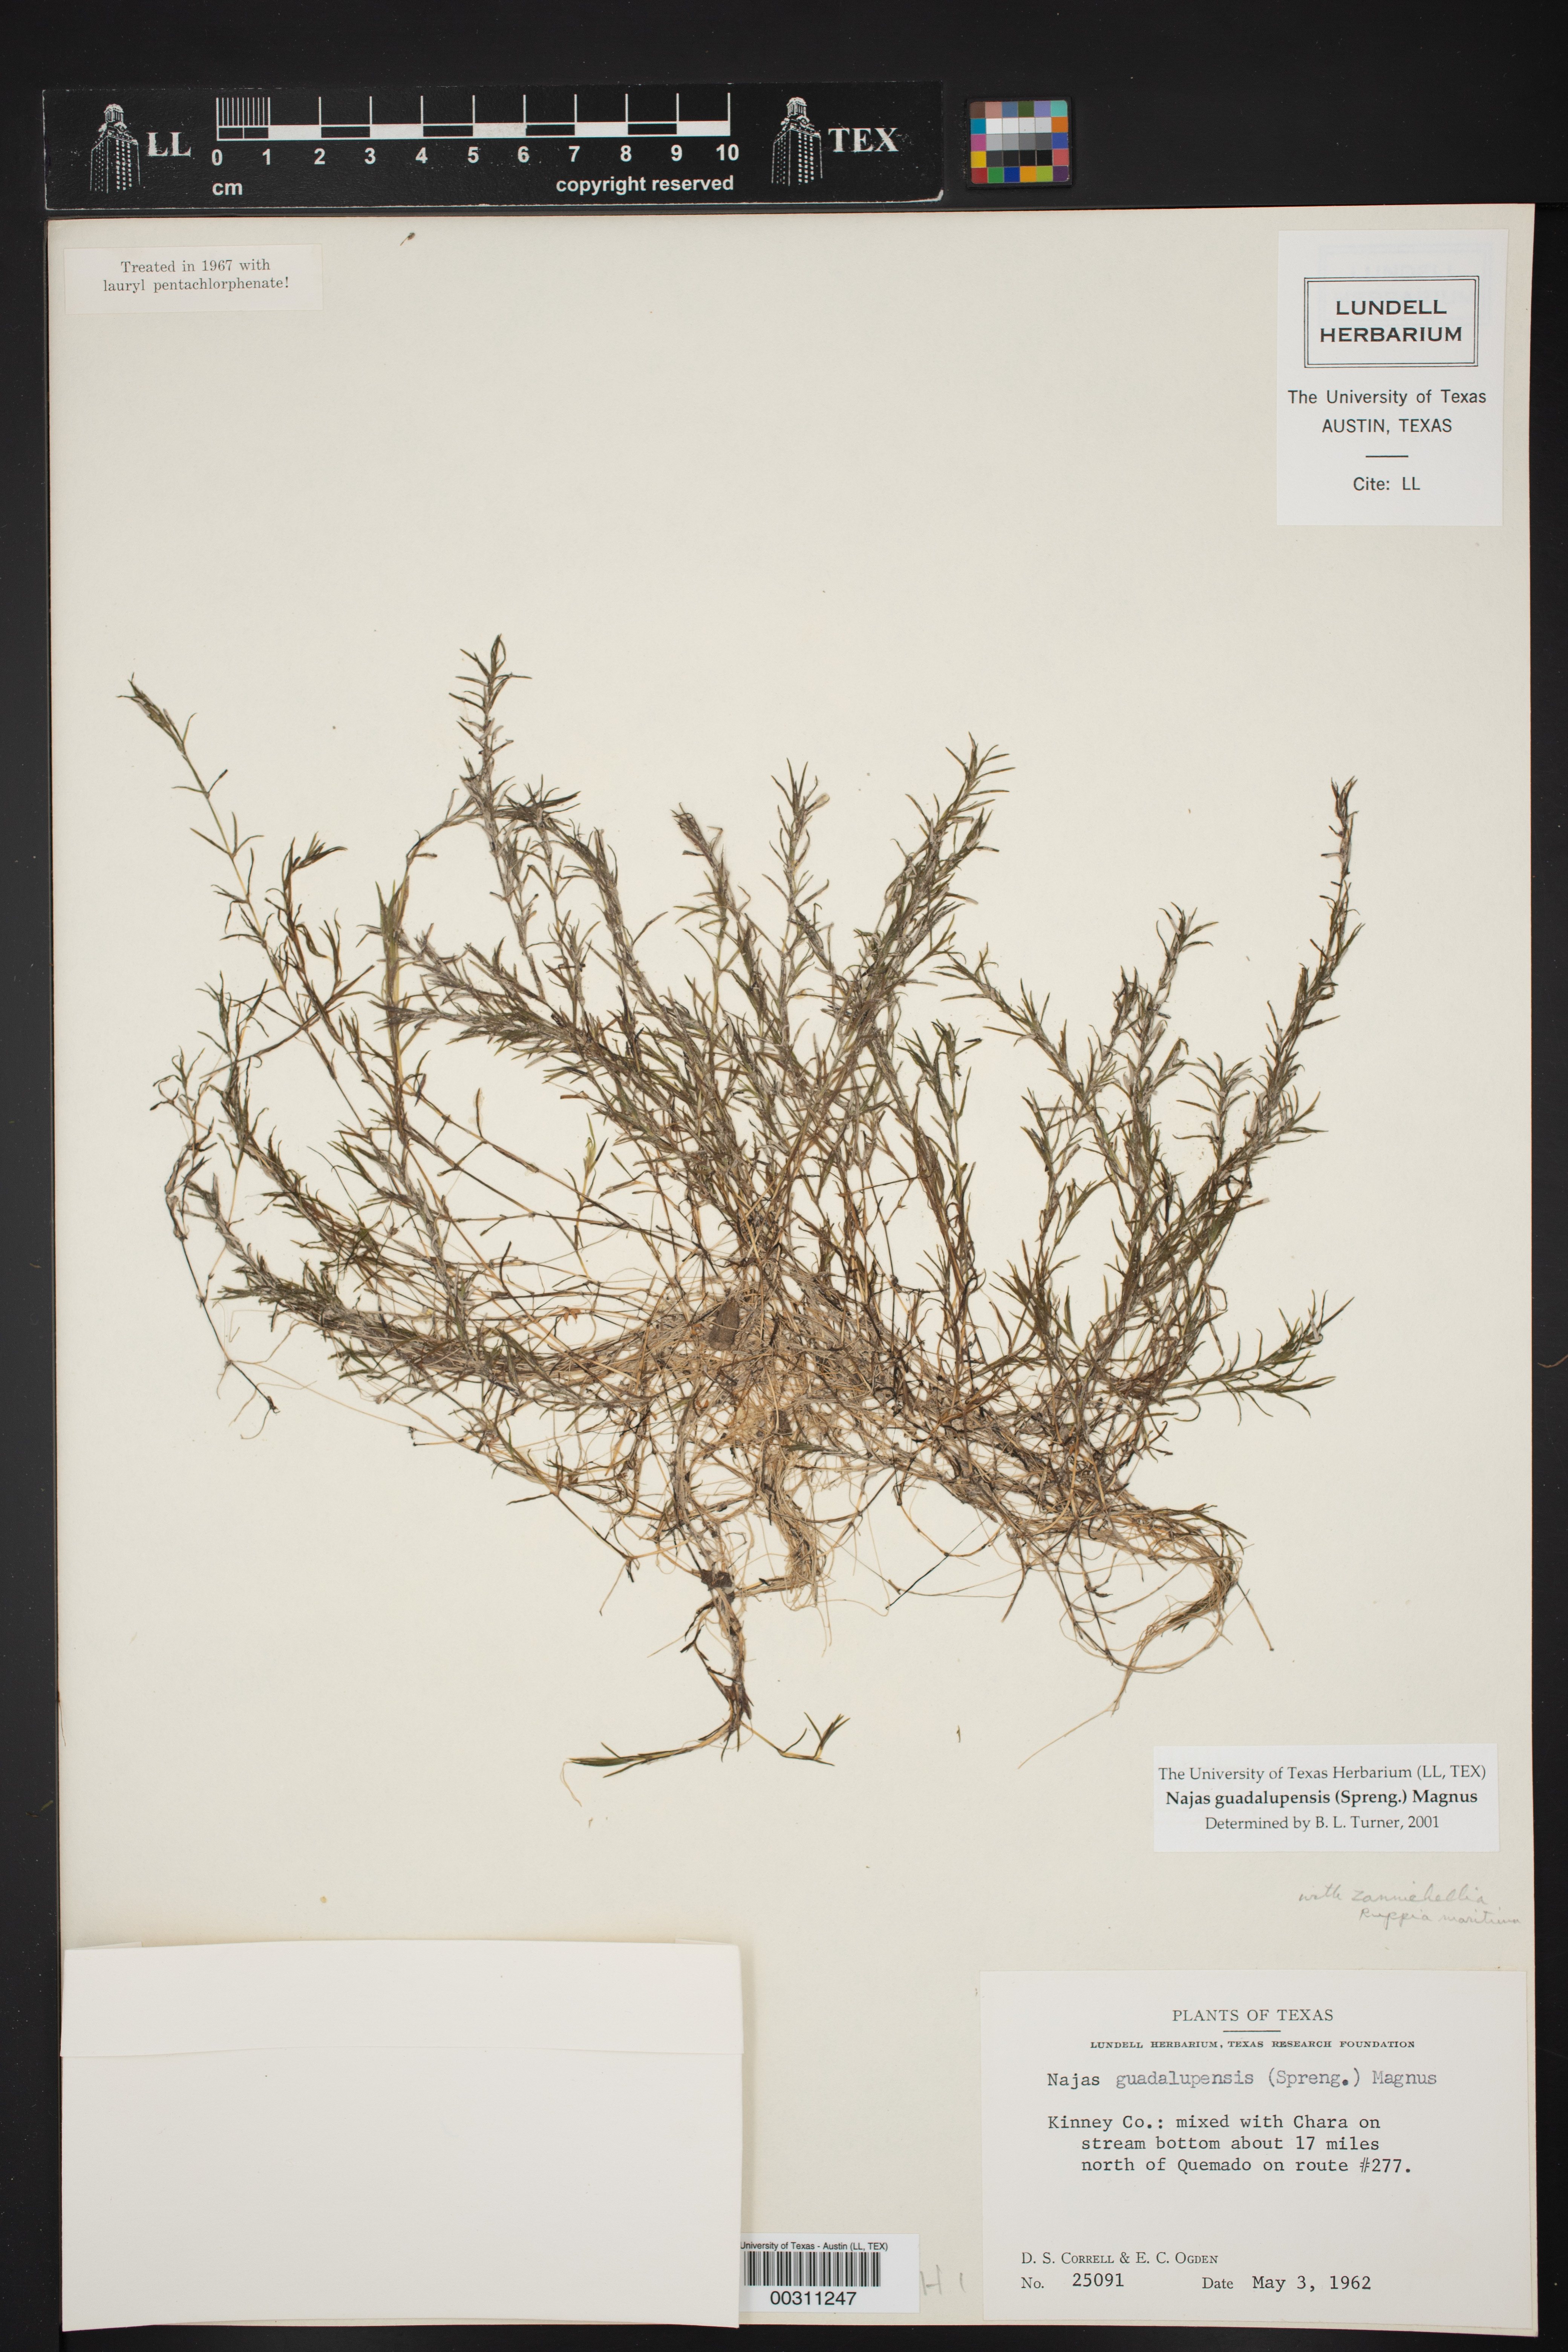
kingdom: Plantae
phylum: Tracheophyta
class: Liliopsida
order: Alismatales
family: Hydrocharitaceae
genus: Najas
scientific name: Najas guadalupensis
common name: Southern naiad
